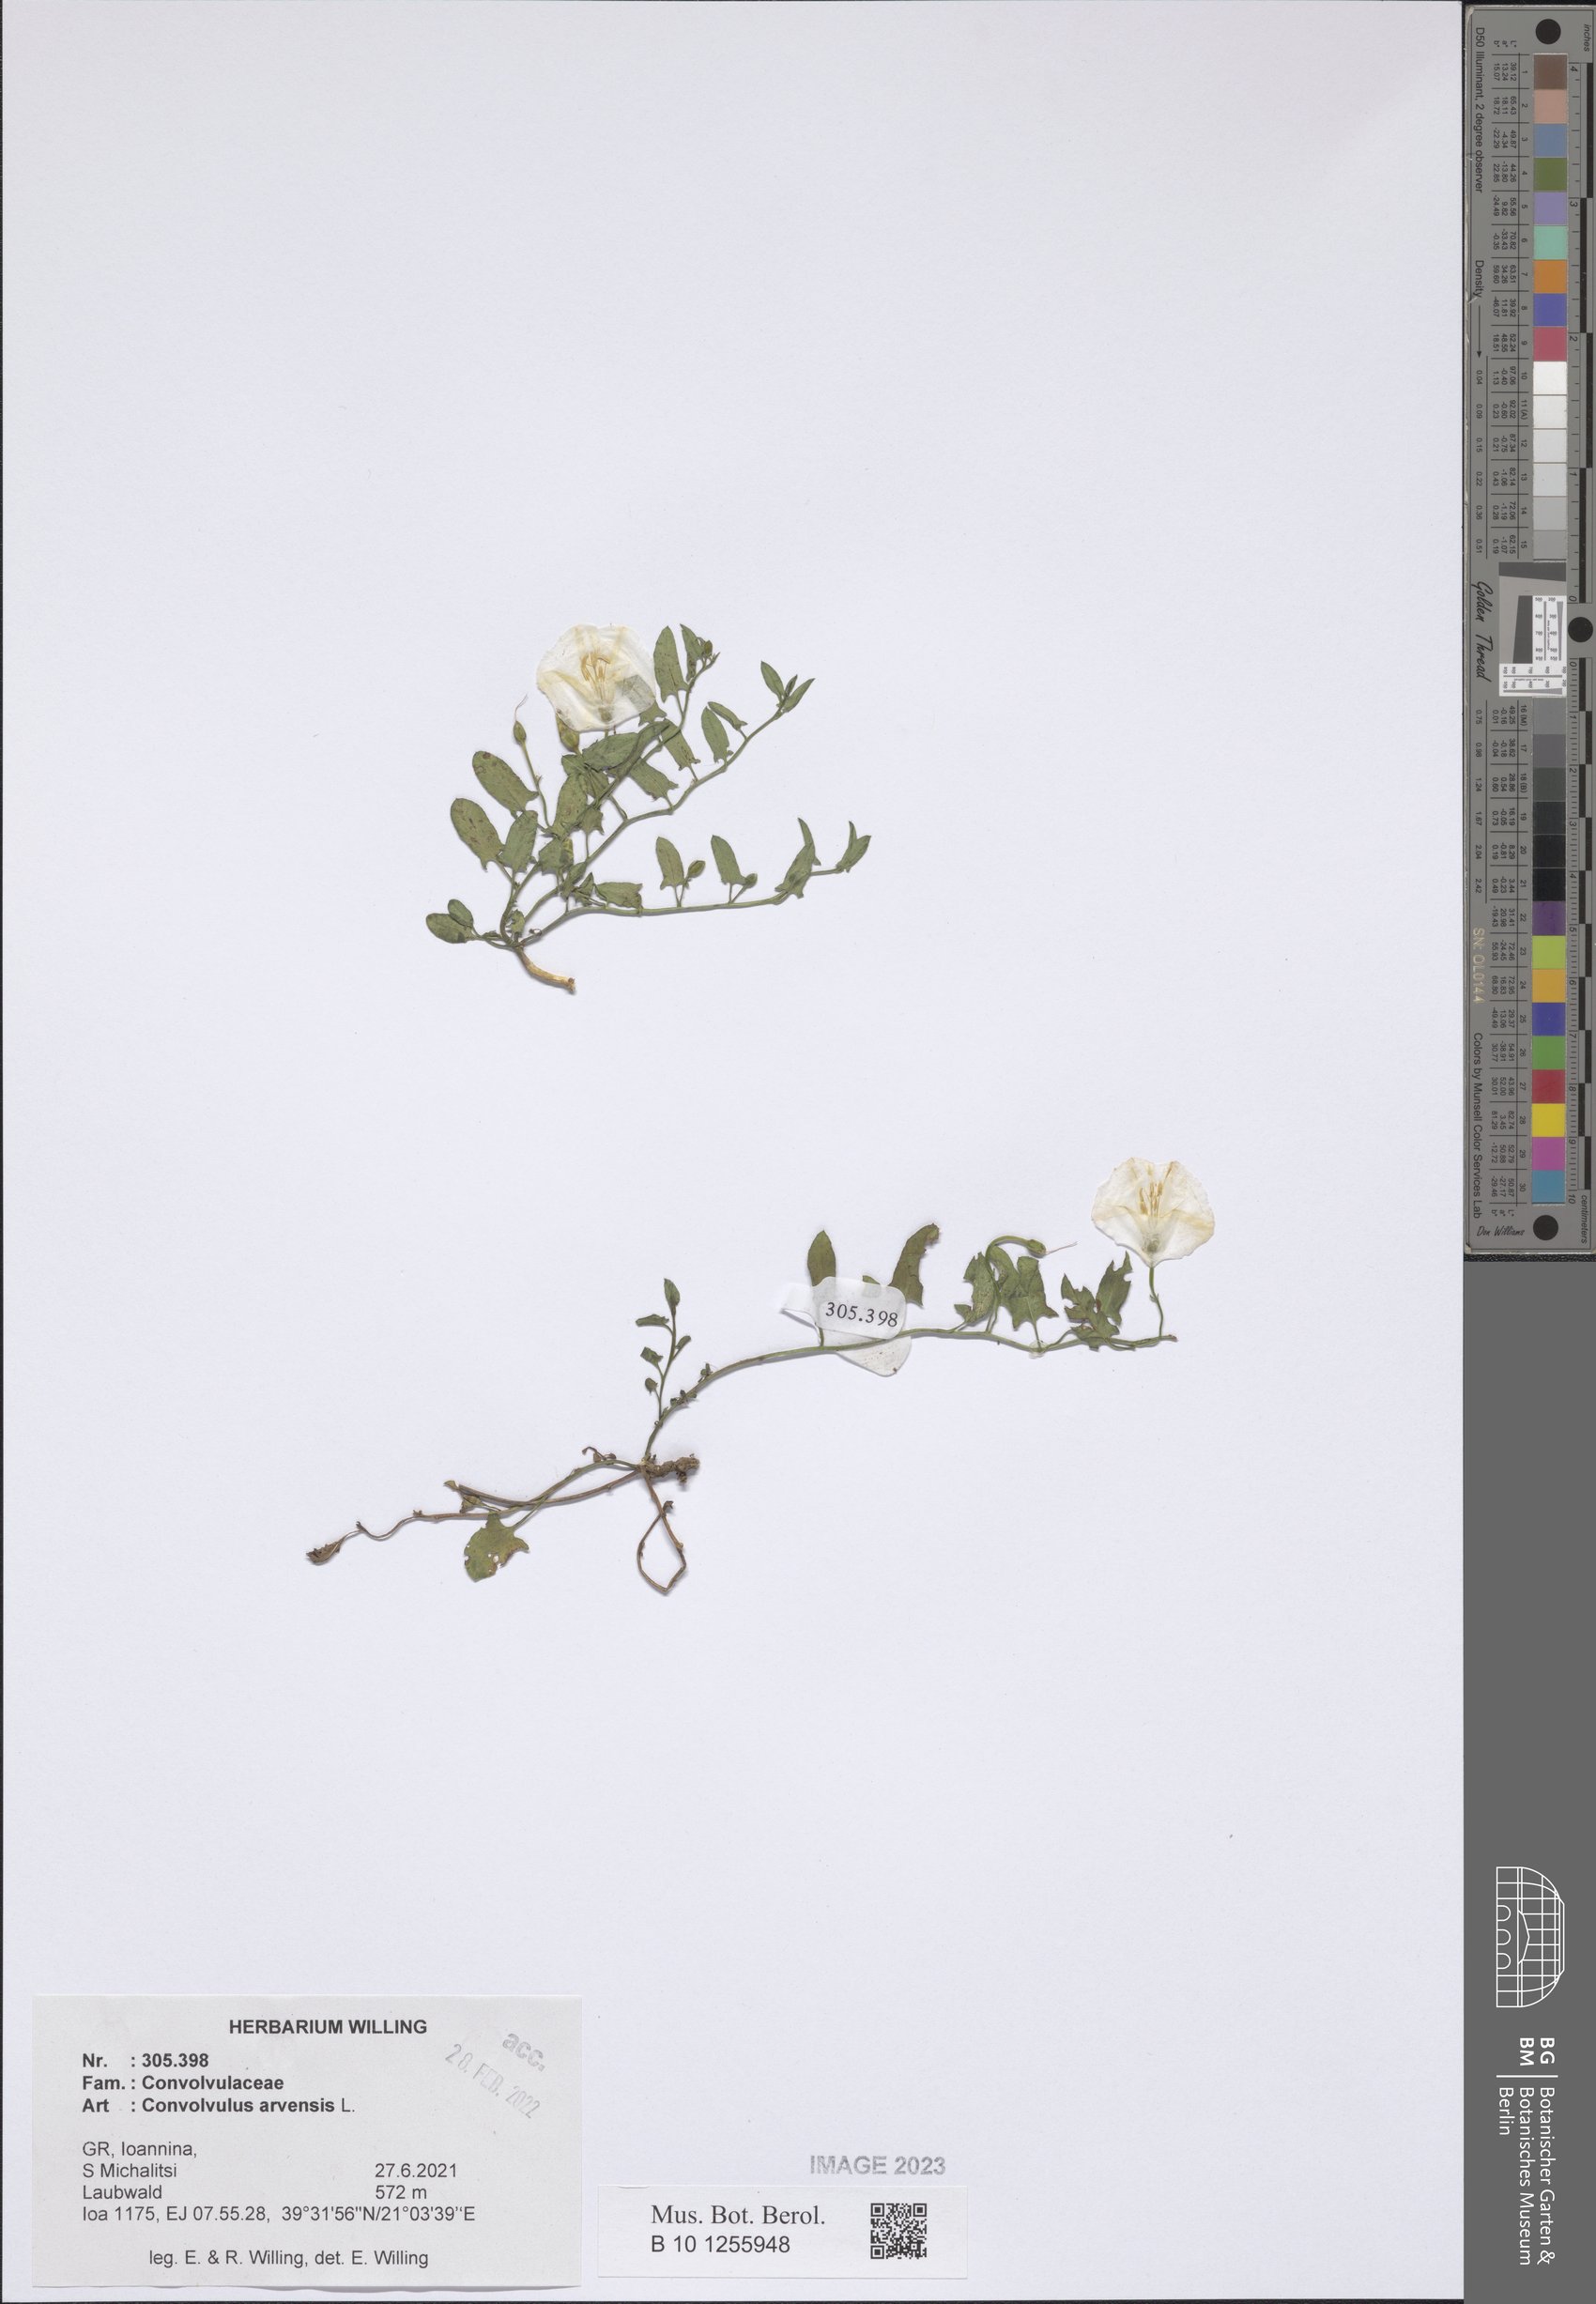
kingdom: Plantae
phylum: Tracheophyta
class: Magnoliopsida
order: Solanales
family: Convolvulaceae
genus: Convolvulus
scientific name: Convolvulus arvensis
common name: Field bindweed
